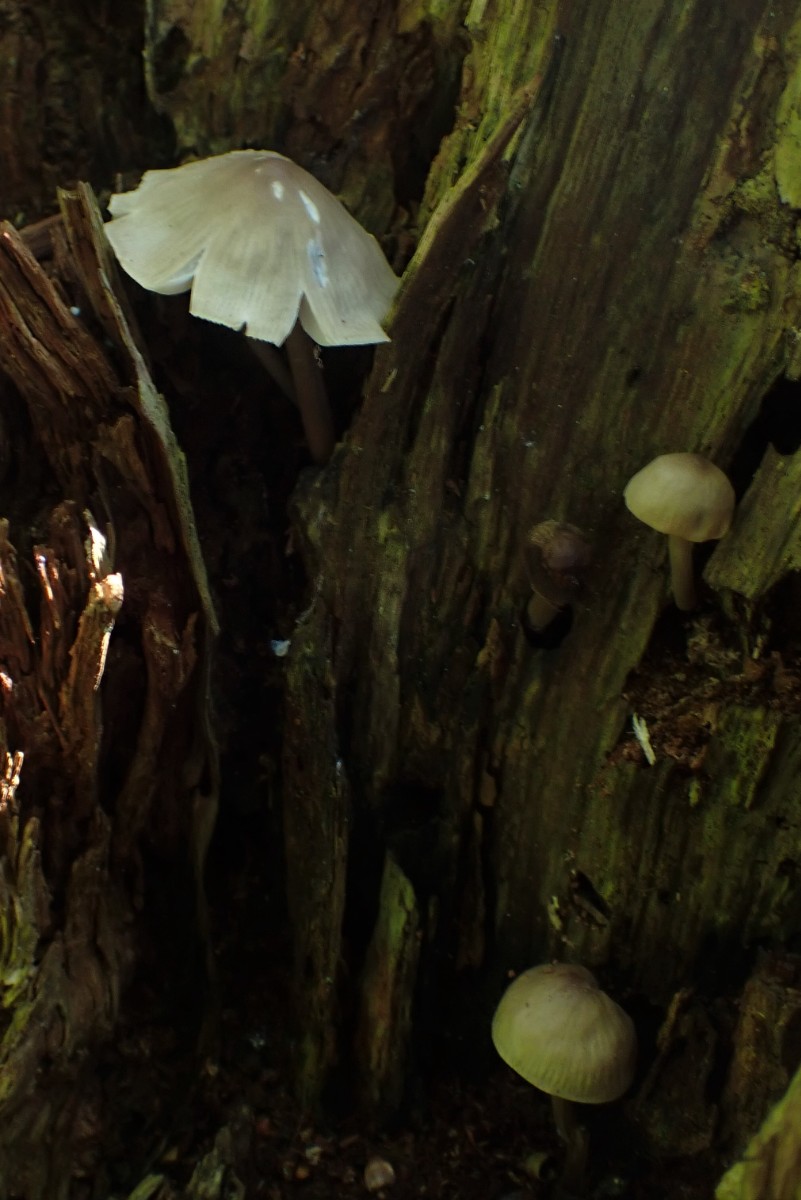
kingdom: Fungi
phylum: Basidiomycota
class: Agaricomycetes
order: Agaricales
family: Mycenaceae
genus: Mycena
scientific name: Mycena galericulata
